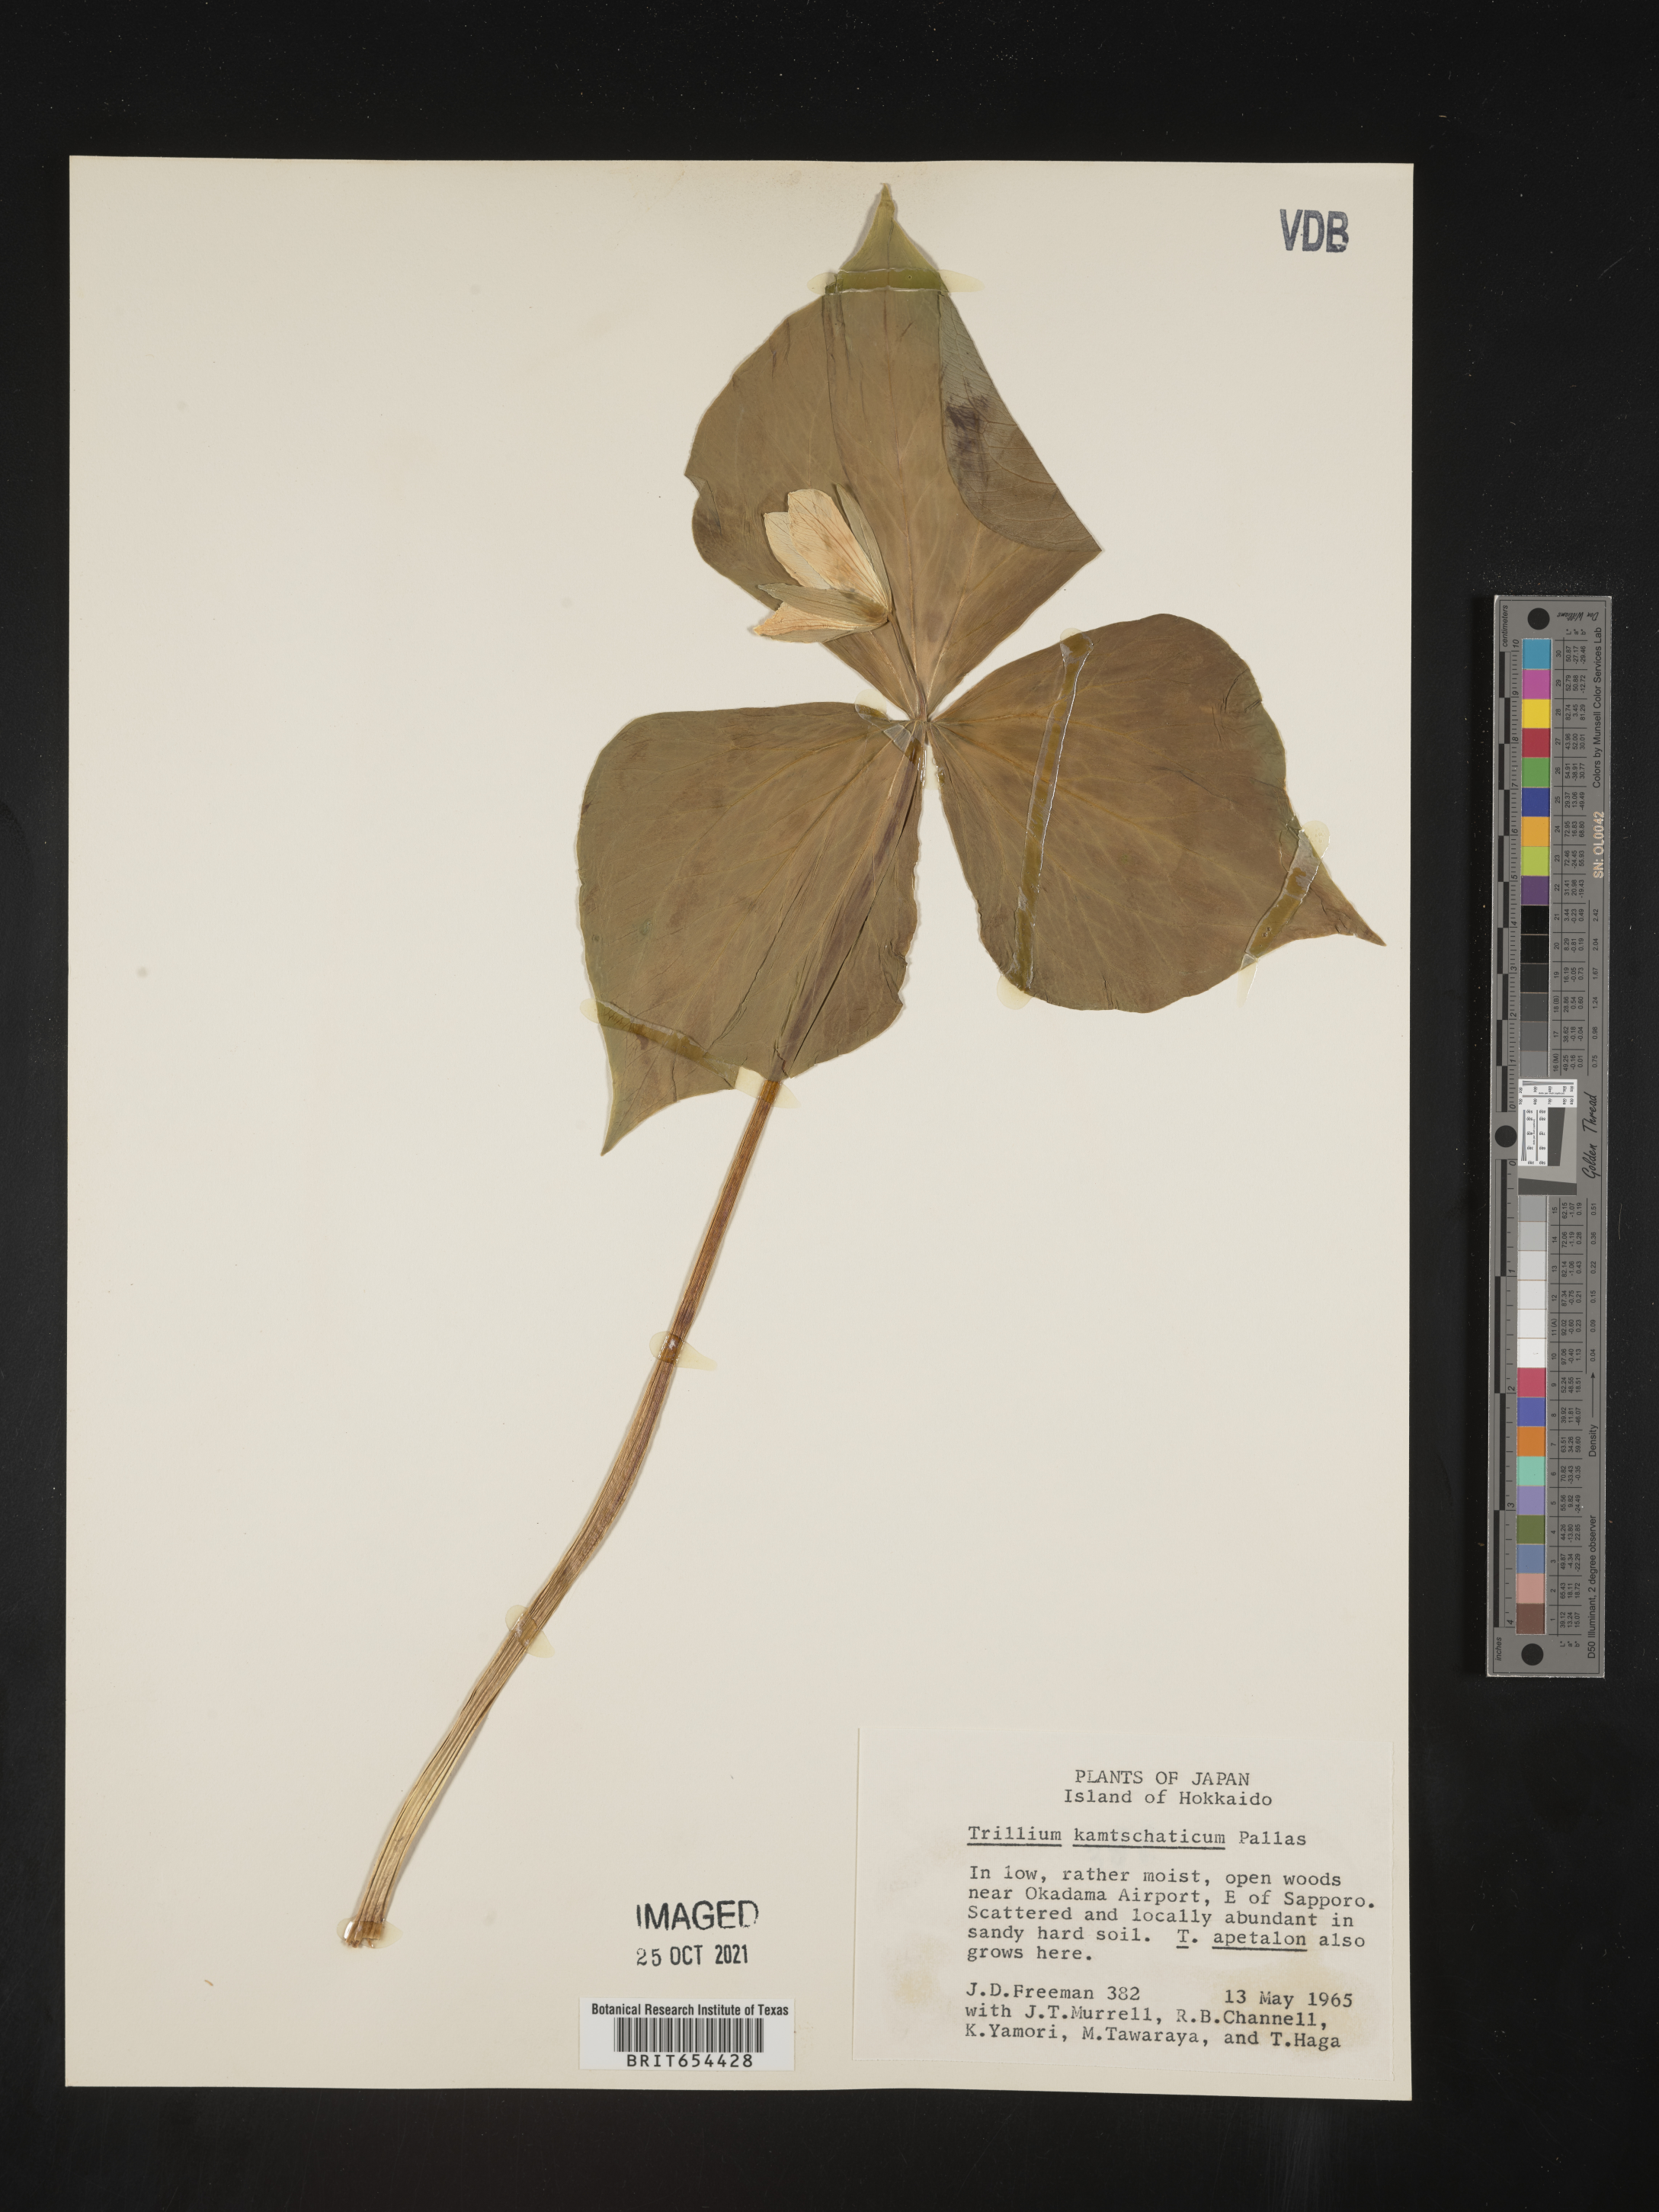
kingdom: Plantae
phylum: Tracheophyta
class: Liliopsida
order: Liliales
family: Melanthiaceae
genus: Trillium
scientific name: Trillium
